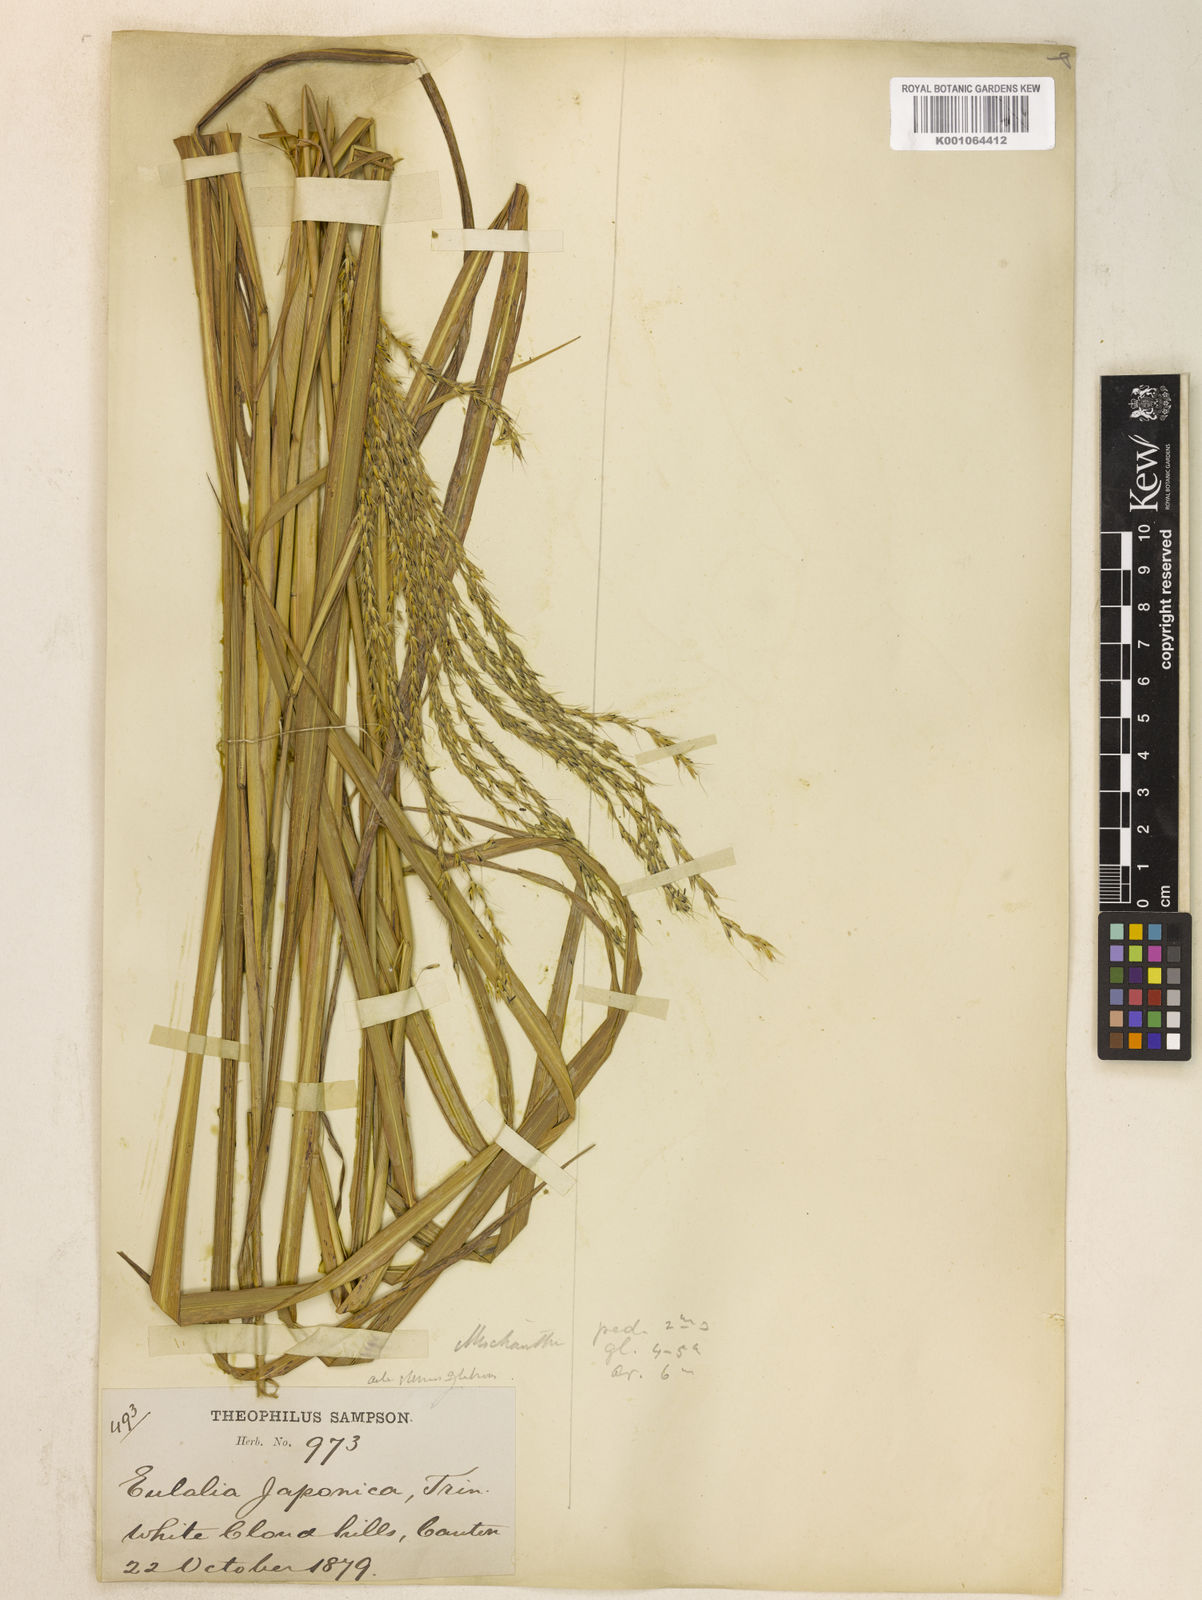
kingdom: Plantae
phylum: Tracheophyta
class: Liliopsida
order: Poales
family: Poaceae
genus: Miscanthus
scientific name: Miscanthus sinensis
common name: Chinese silvergrass
